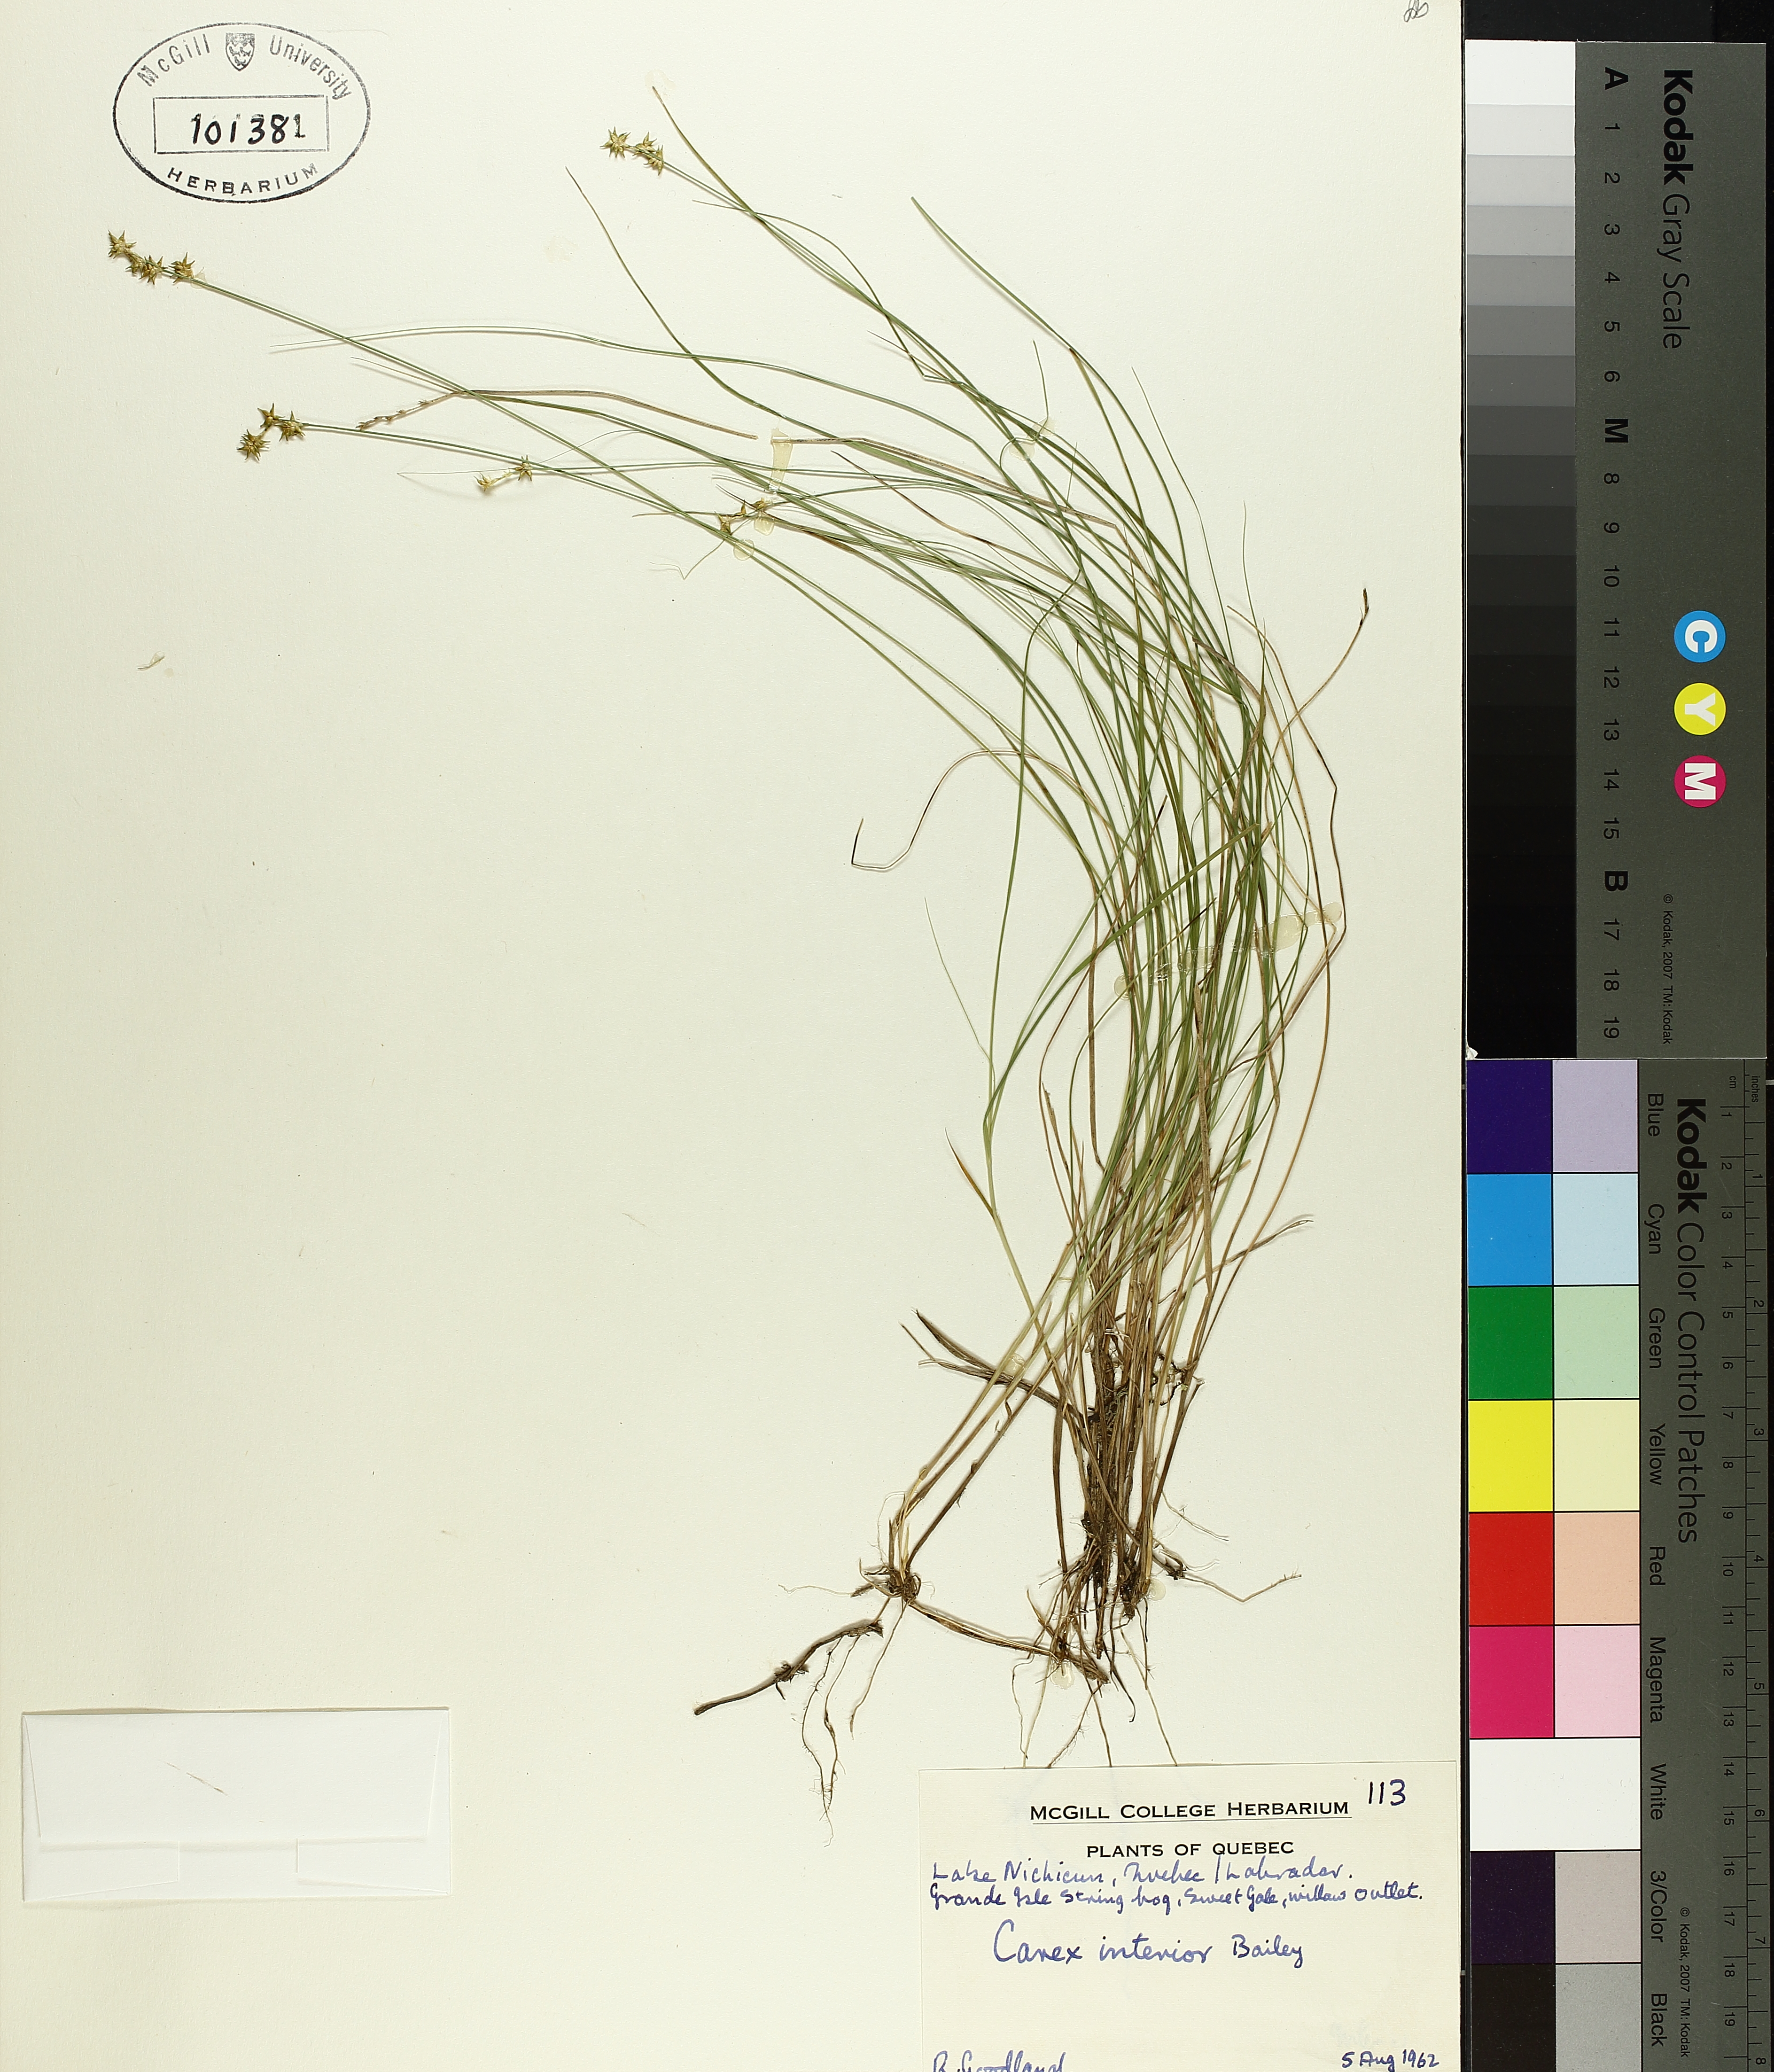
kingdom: Plantae
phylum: Tracheophyta
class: Liliopsida
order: Poales
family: Cyperaceae
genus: Carex
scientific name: Carex interior
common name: Inland sedge
